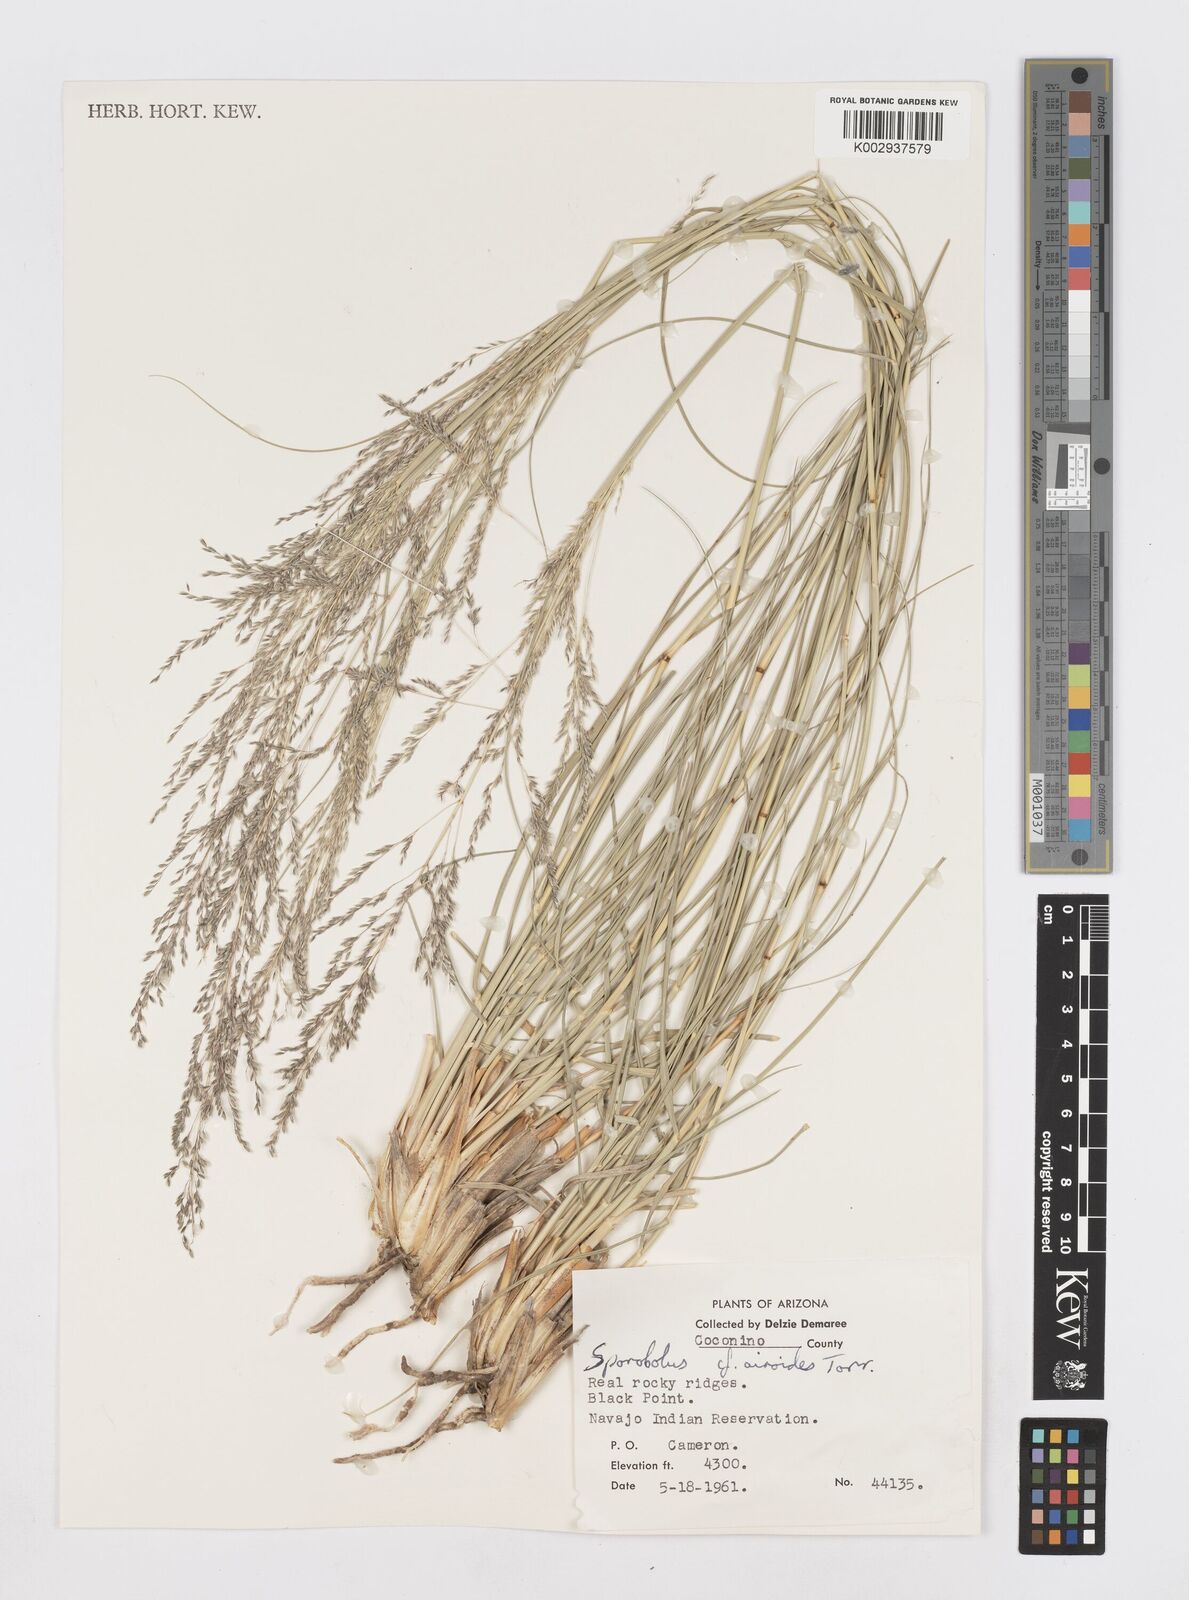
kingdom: Plantae
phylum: Tracheophyta
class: Liliopsida
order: Poales
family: Poaceae
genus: Sporobolus
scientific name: Sporobolus
